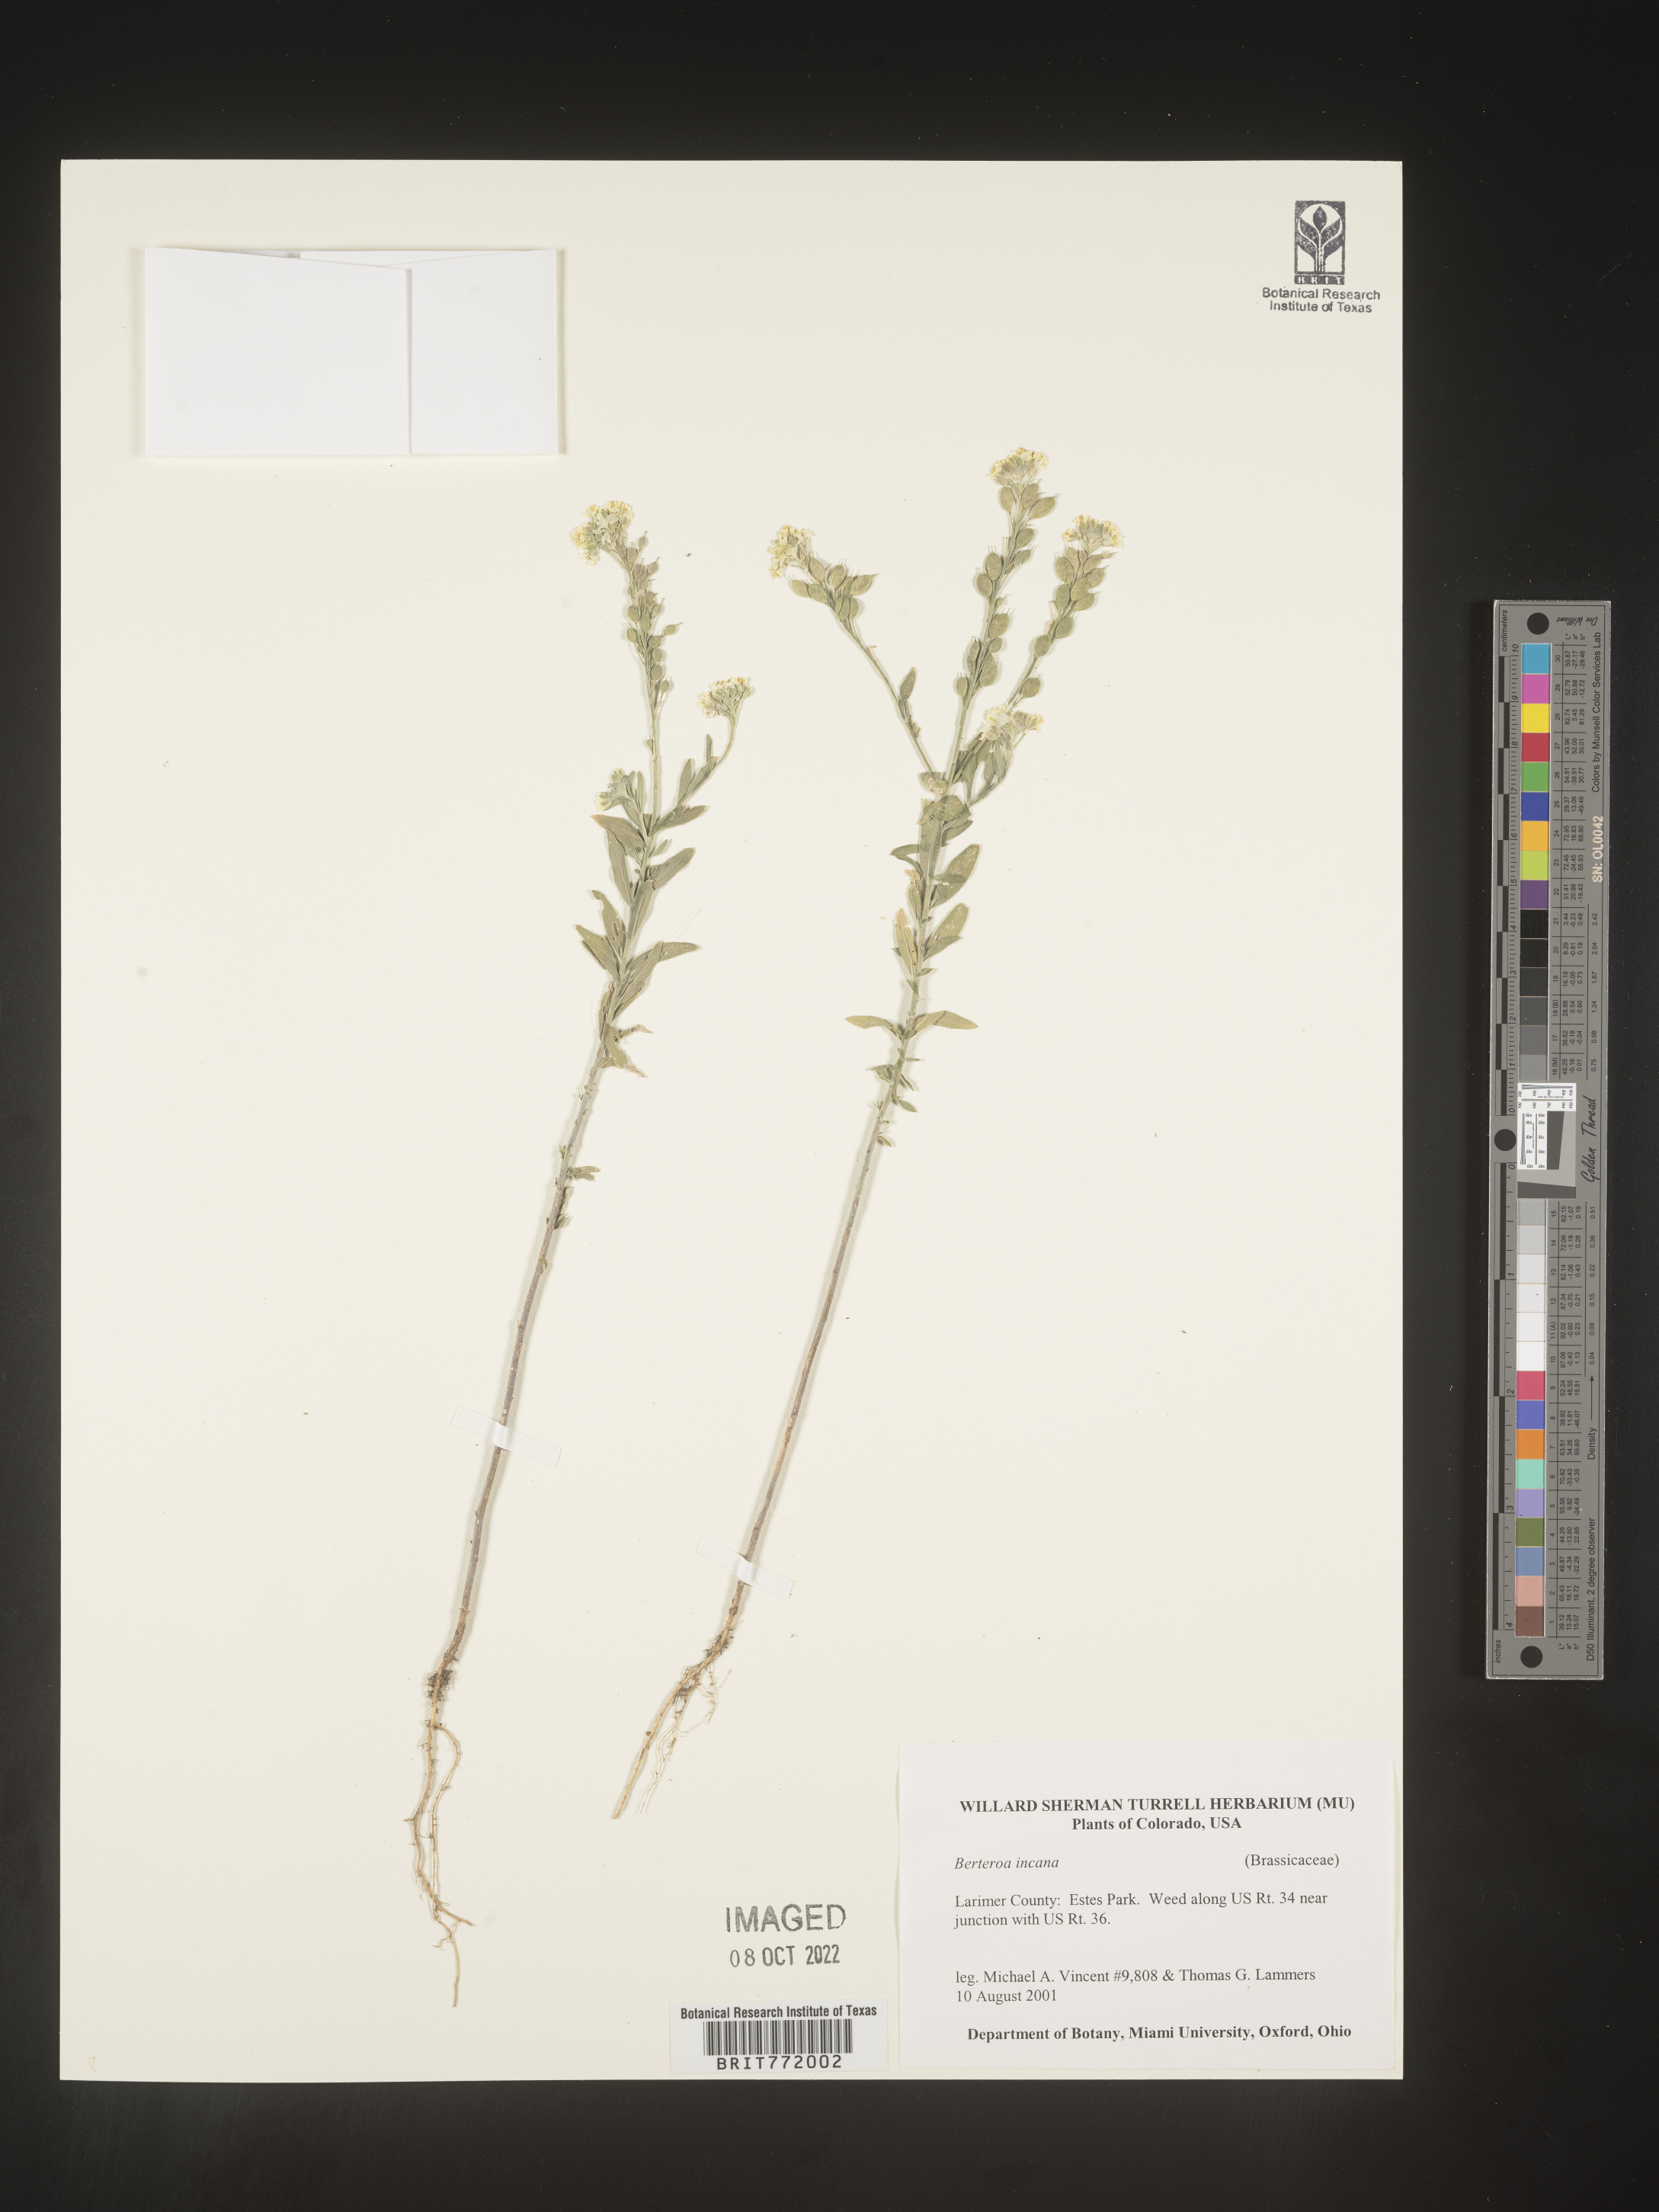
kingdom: Plantae
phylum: Tracheophyta
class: Magnoliopsida
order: Brassicales
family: Brassicaceae
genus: Berteroa
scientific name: Berteroa incana
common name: Hoary alison
